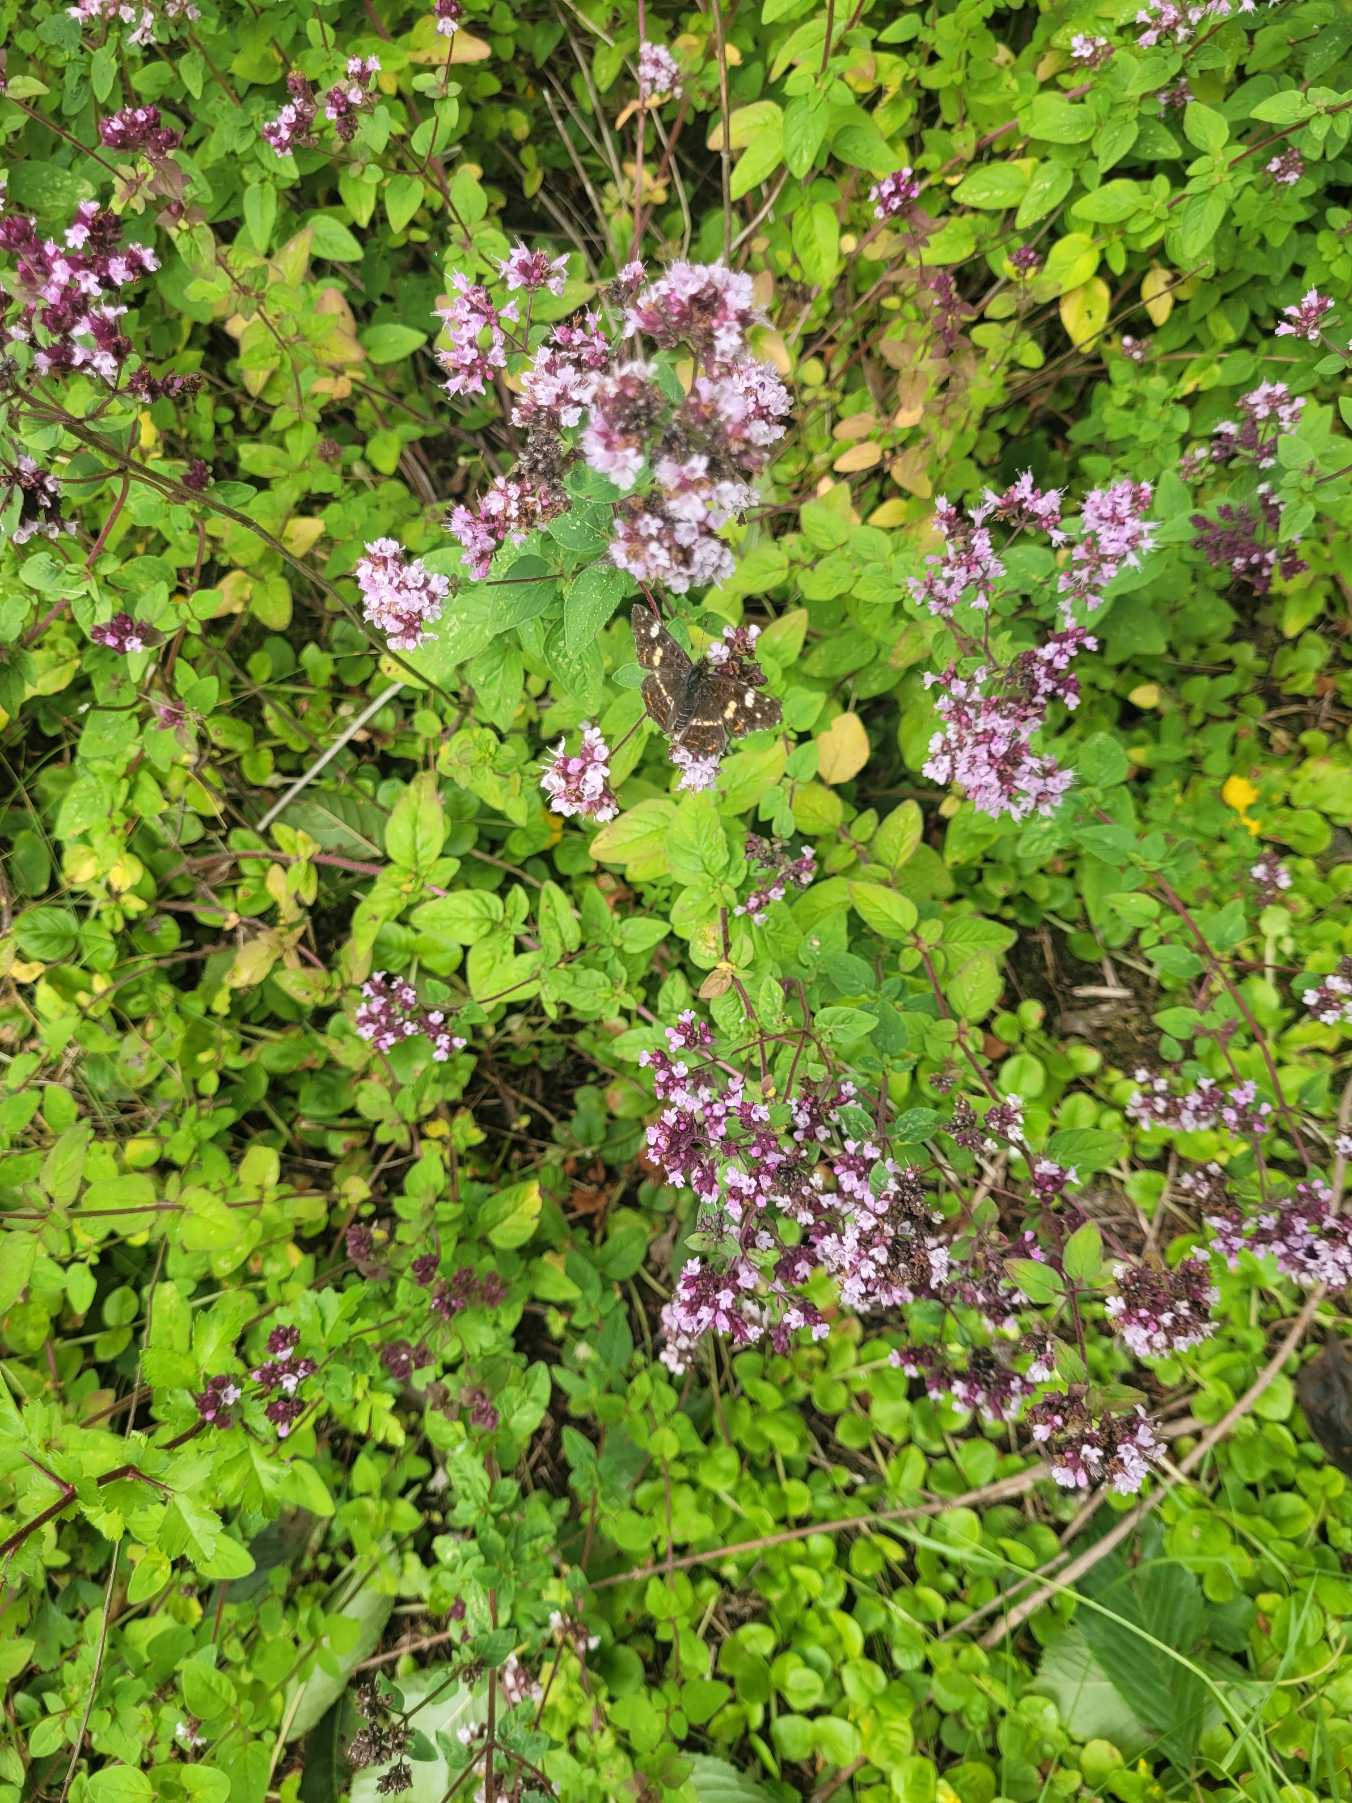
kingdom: Plantae
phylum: Tracheophyta
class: Magnoliopsida
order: Lamiales
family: Lamiaceae
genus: Origanum
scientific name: Origanum vulgare
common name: Merian
